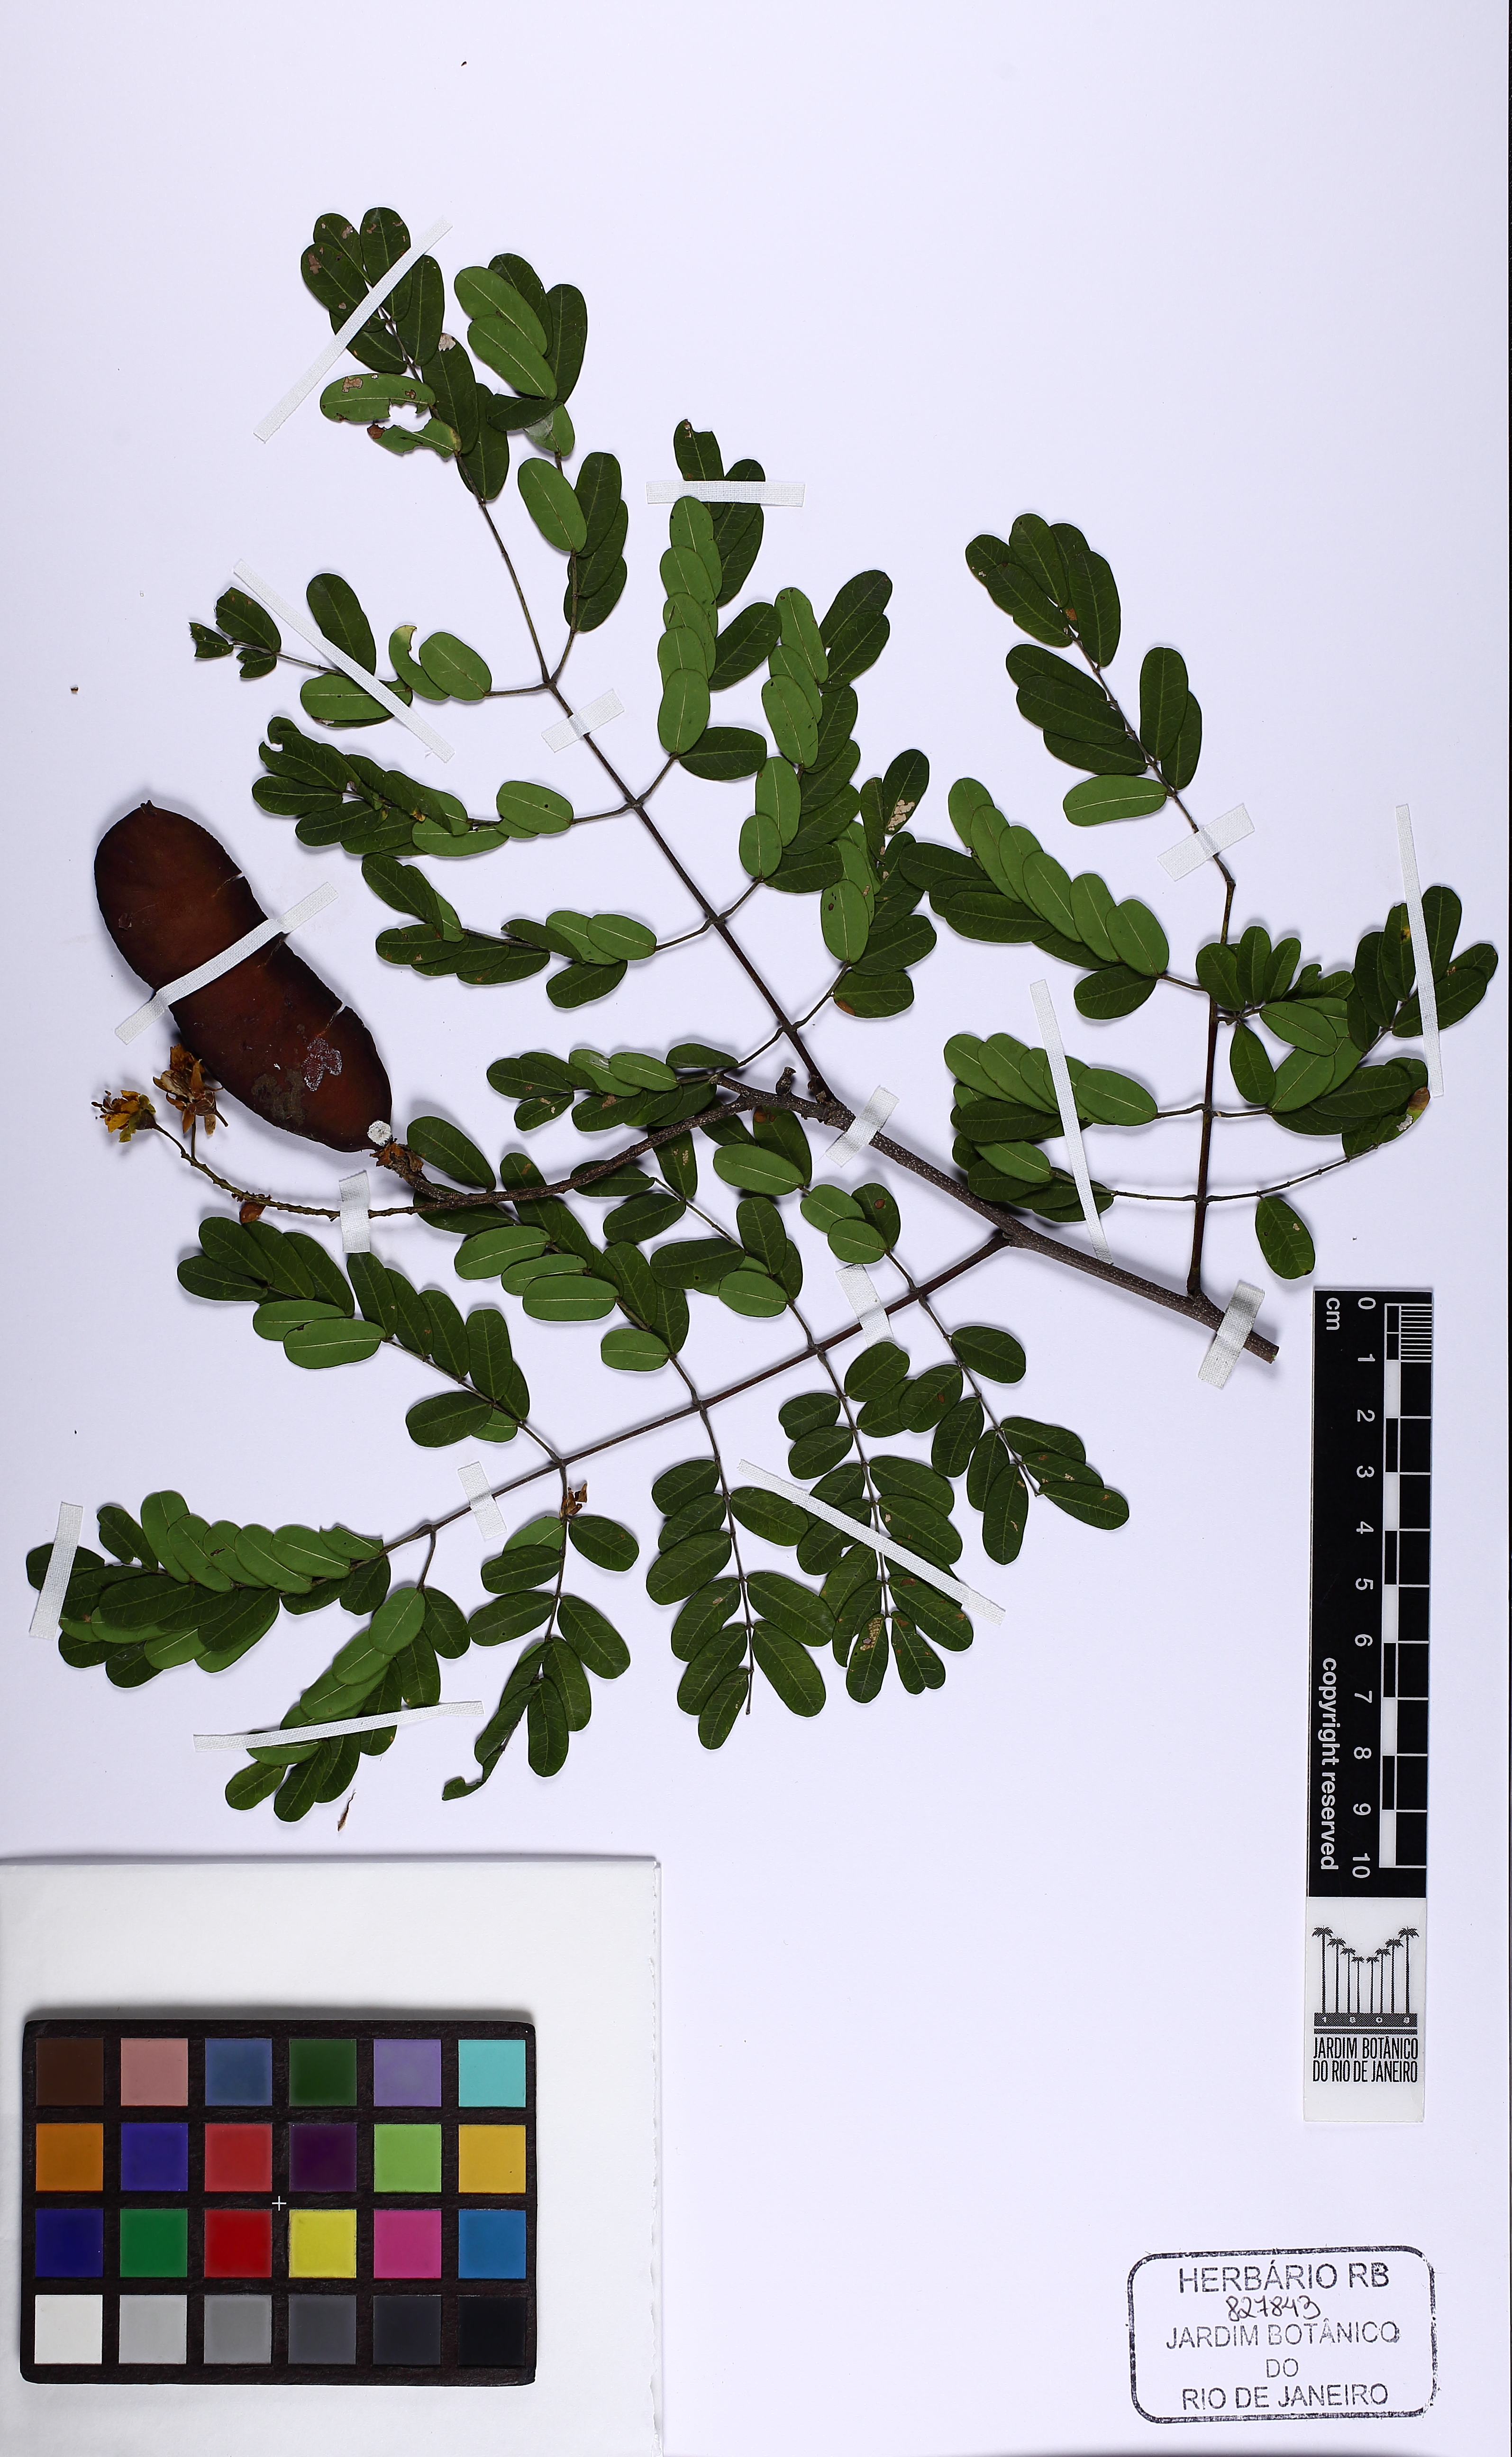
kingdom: Plantae
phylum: Tracheophyta
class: Magnoliopsida
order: Fabales
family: Fabaceae
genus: Libidibia
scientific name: Libidibia ferrea
